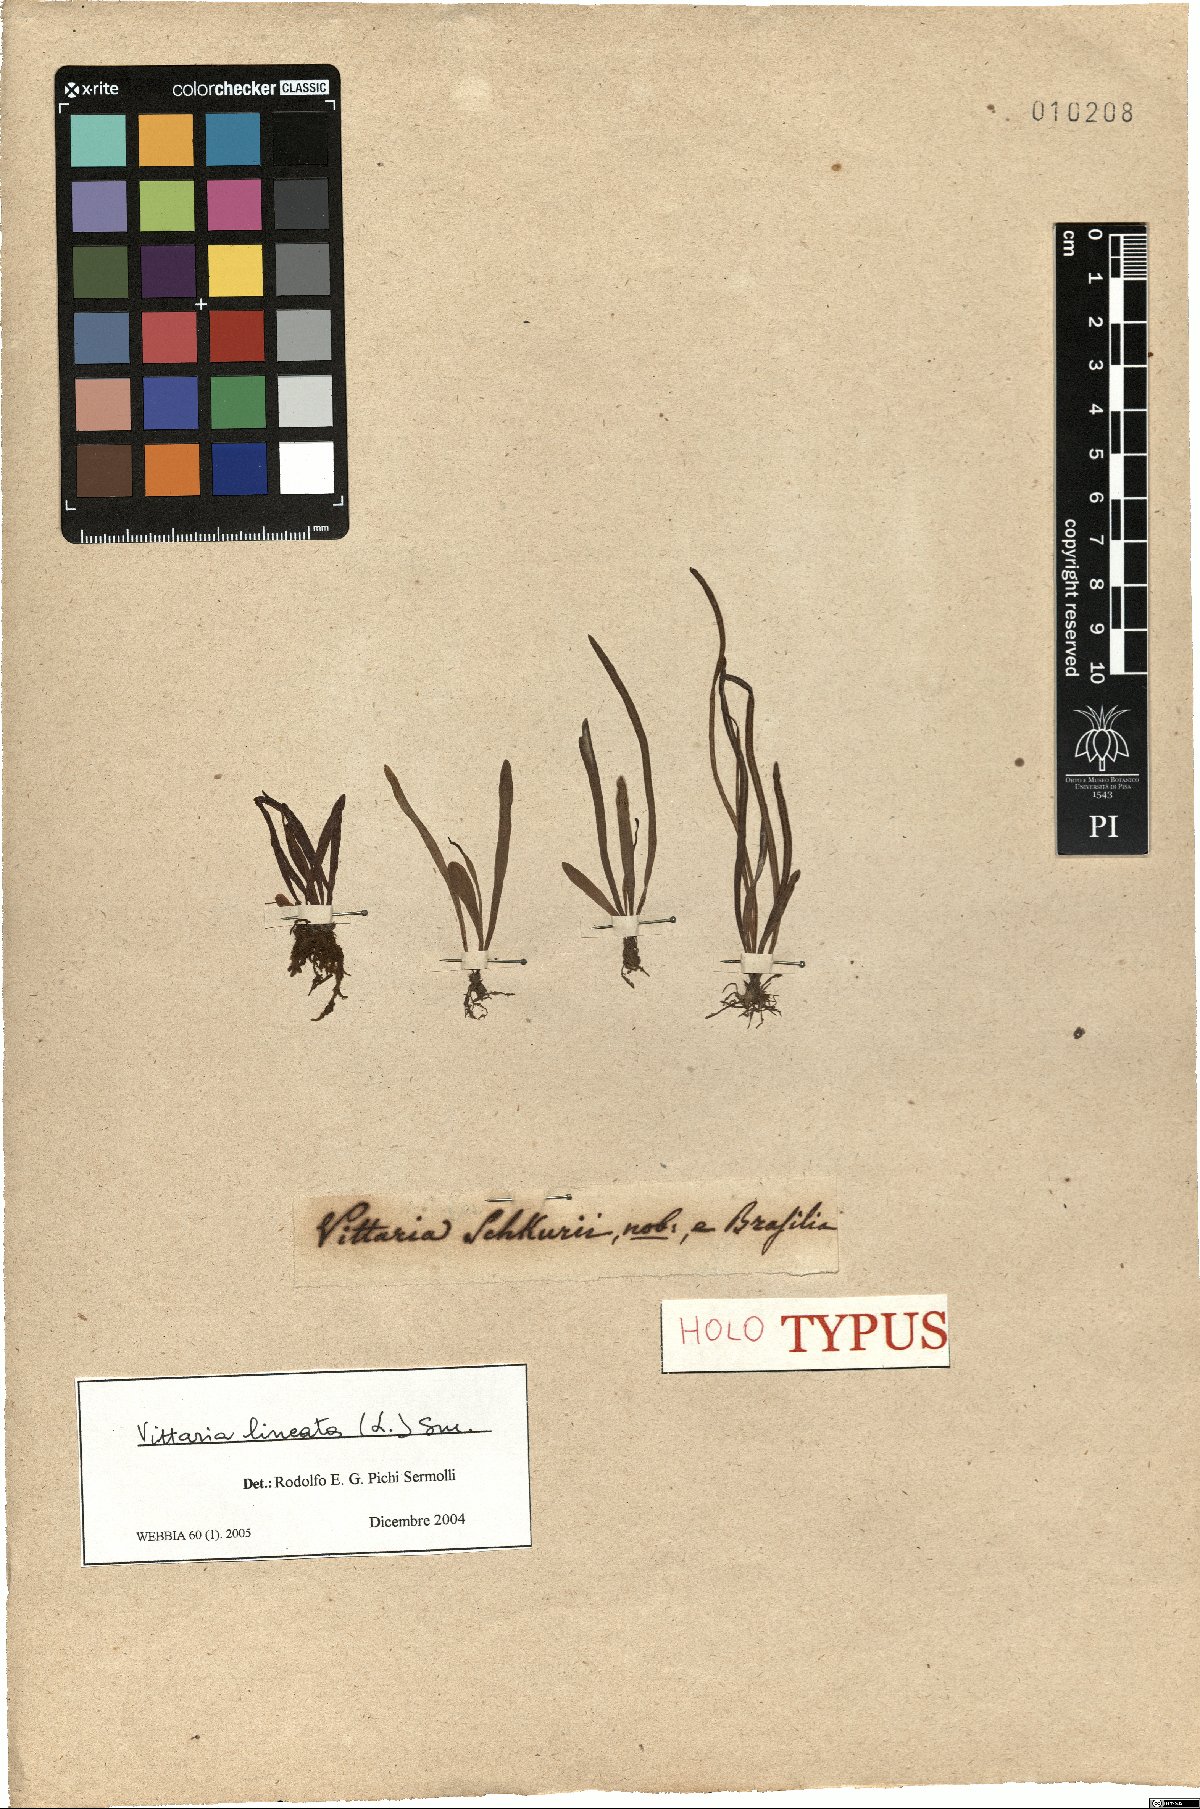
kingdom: Plantae
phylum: Tracheophyta
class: Polypodiopsida
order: Polypodiales
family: Pteridaceae
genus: Vittaria
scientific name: Vittaria lineata
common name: Shoestring fern
